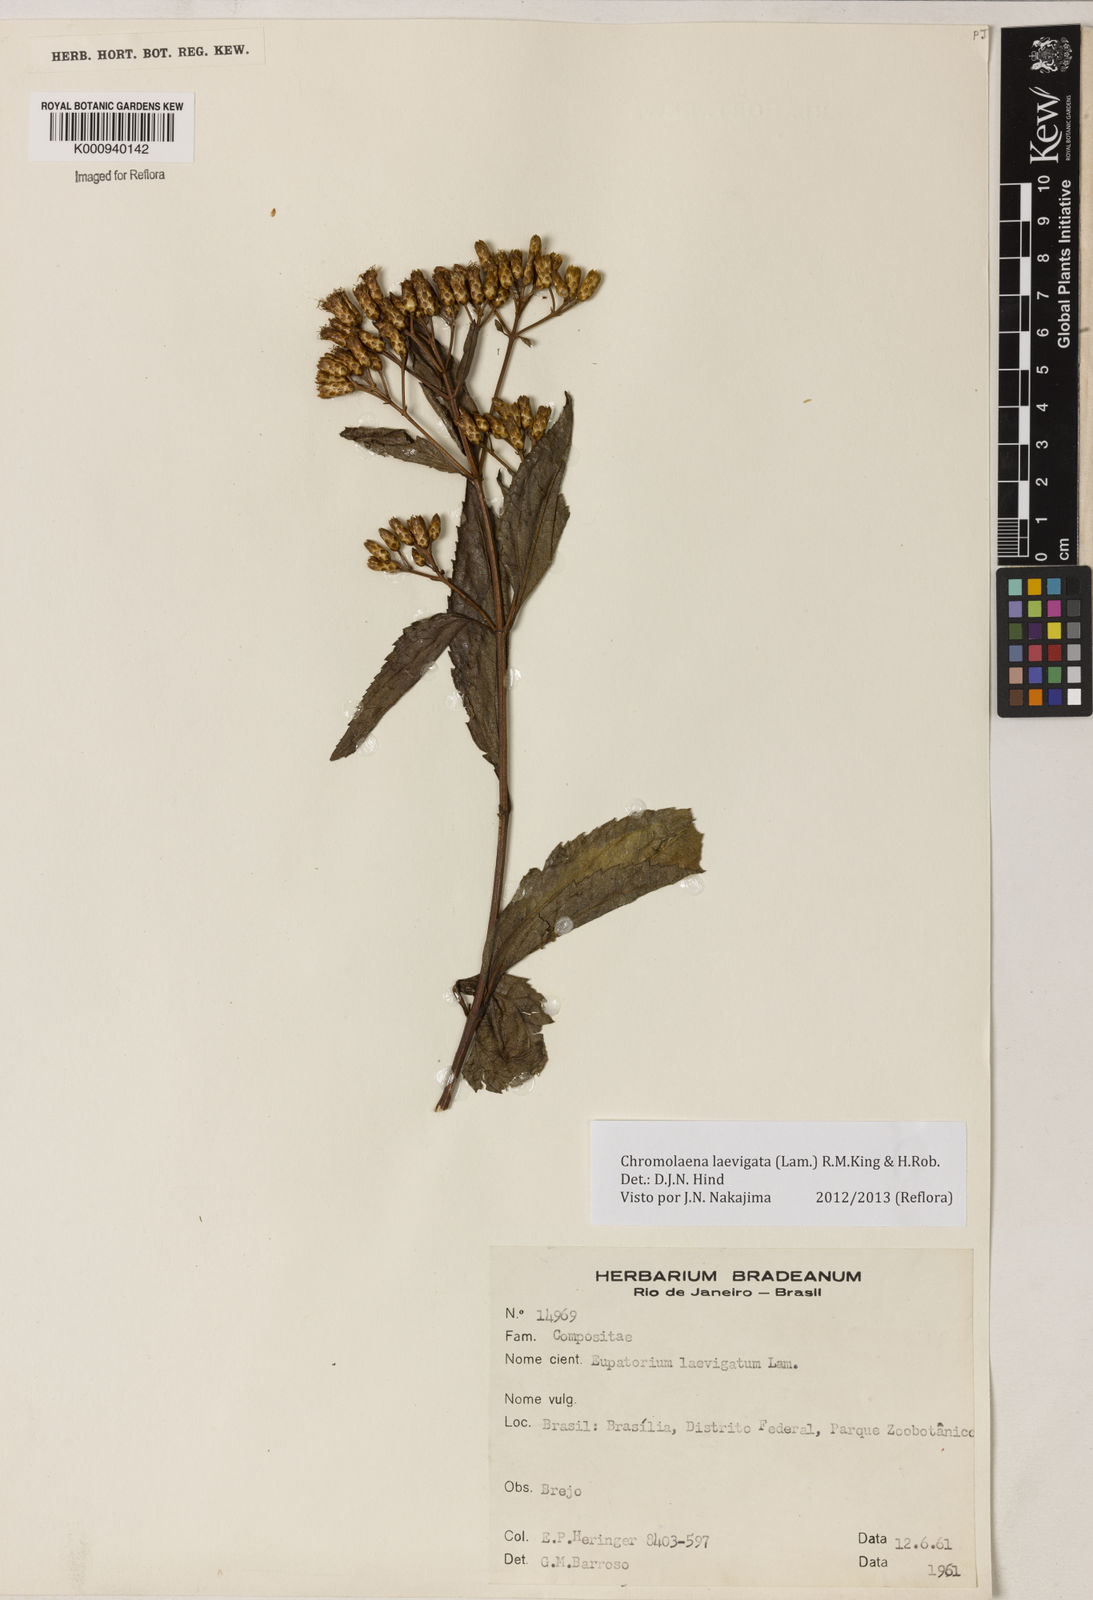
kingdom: Plantae
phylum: Tracheophyta
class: Magnoliopsida
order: Asterales
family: Asteraceae
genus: Chromolaena
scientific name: Chromolaena laevigata
